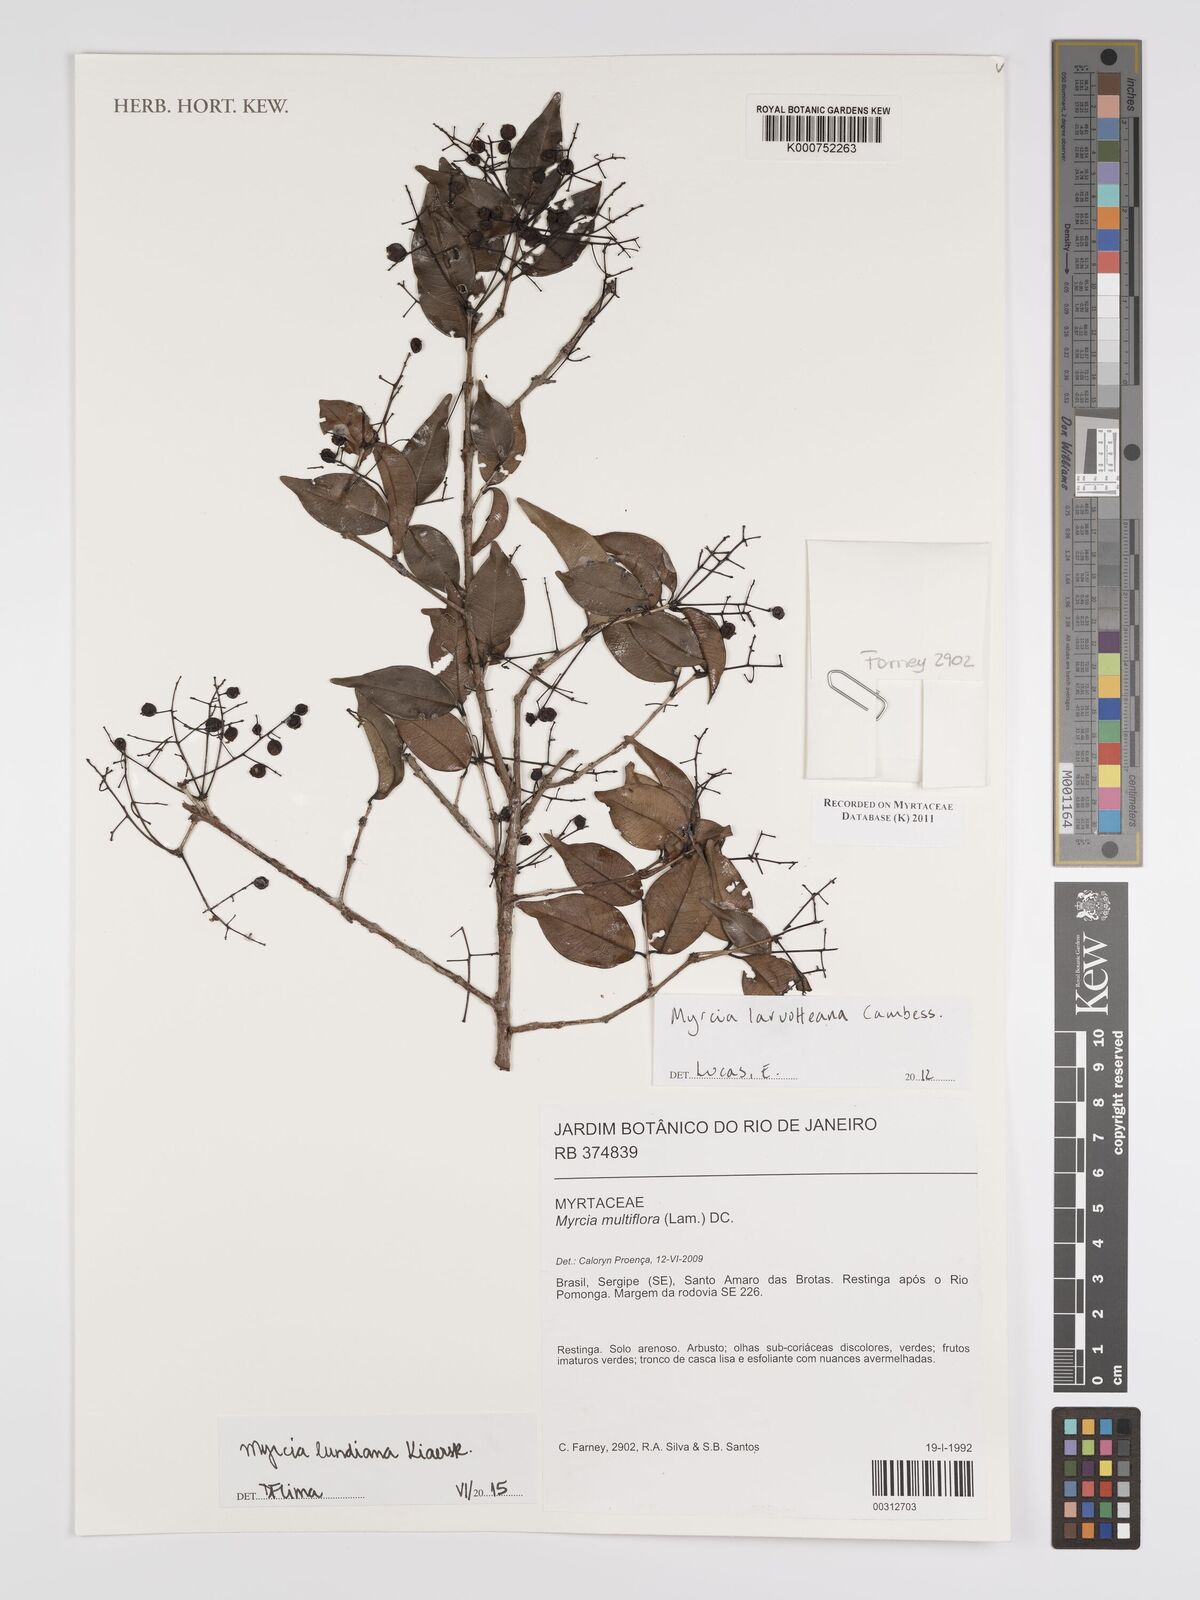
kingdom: Plantae
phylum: Tracheophyta
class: Magnoliopsida
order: Myrtales
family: Myrtaceae
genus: Myrcia
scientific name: Myrcia amazonica
